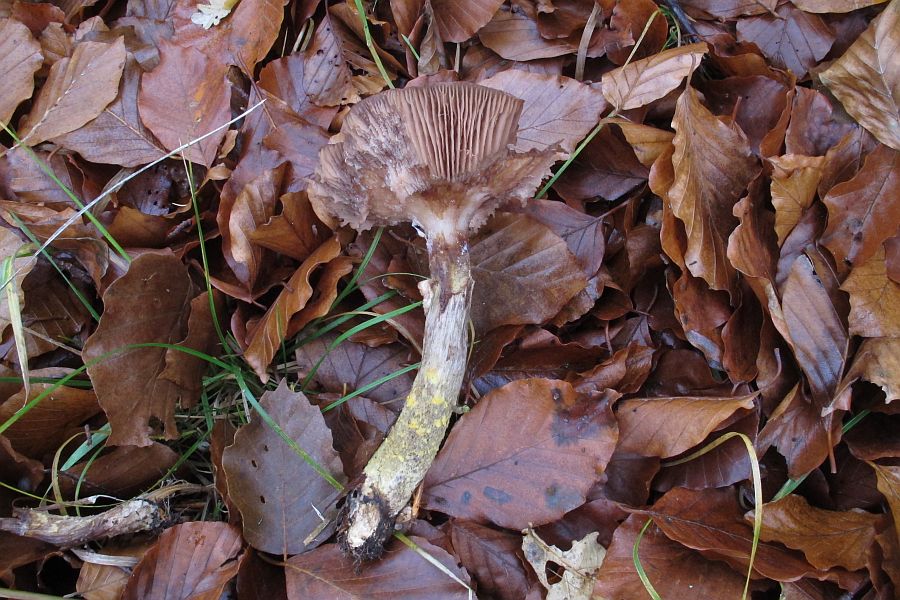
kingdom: Fungi
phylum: Basidiomycota
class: Agaricomycetes
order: Agaricales
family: Physalacriaceae
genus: Armillaria
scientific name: Armillaria lutea
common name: køllestokket honningsvamp
